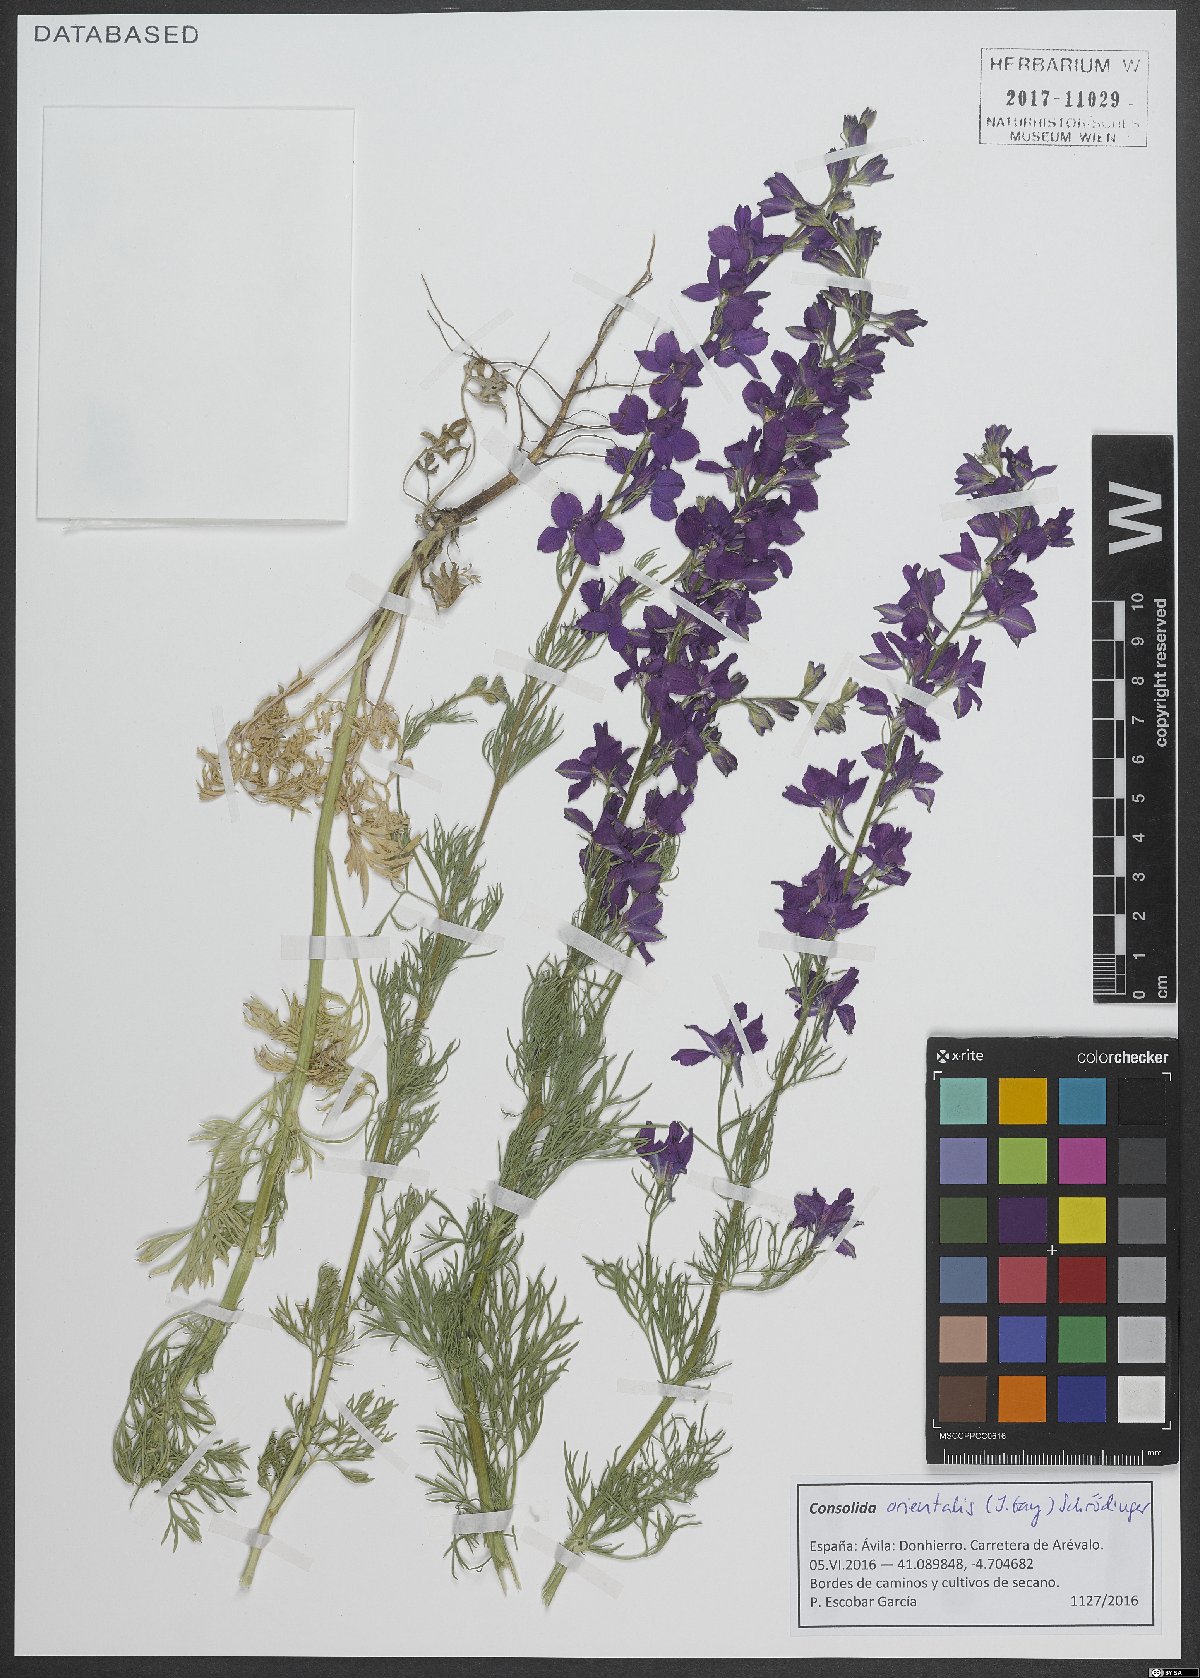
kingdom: Plantae
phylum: Tracheophyta
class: Magnoliopsida
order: Ranunculales
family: Ranunculaceae
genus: Delphinium
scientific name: Delphinium hispanicum
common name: Oriental knight's-spur
